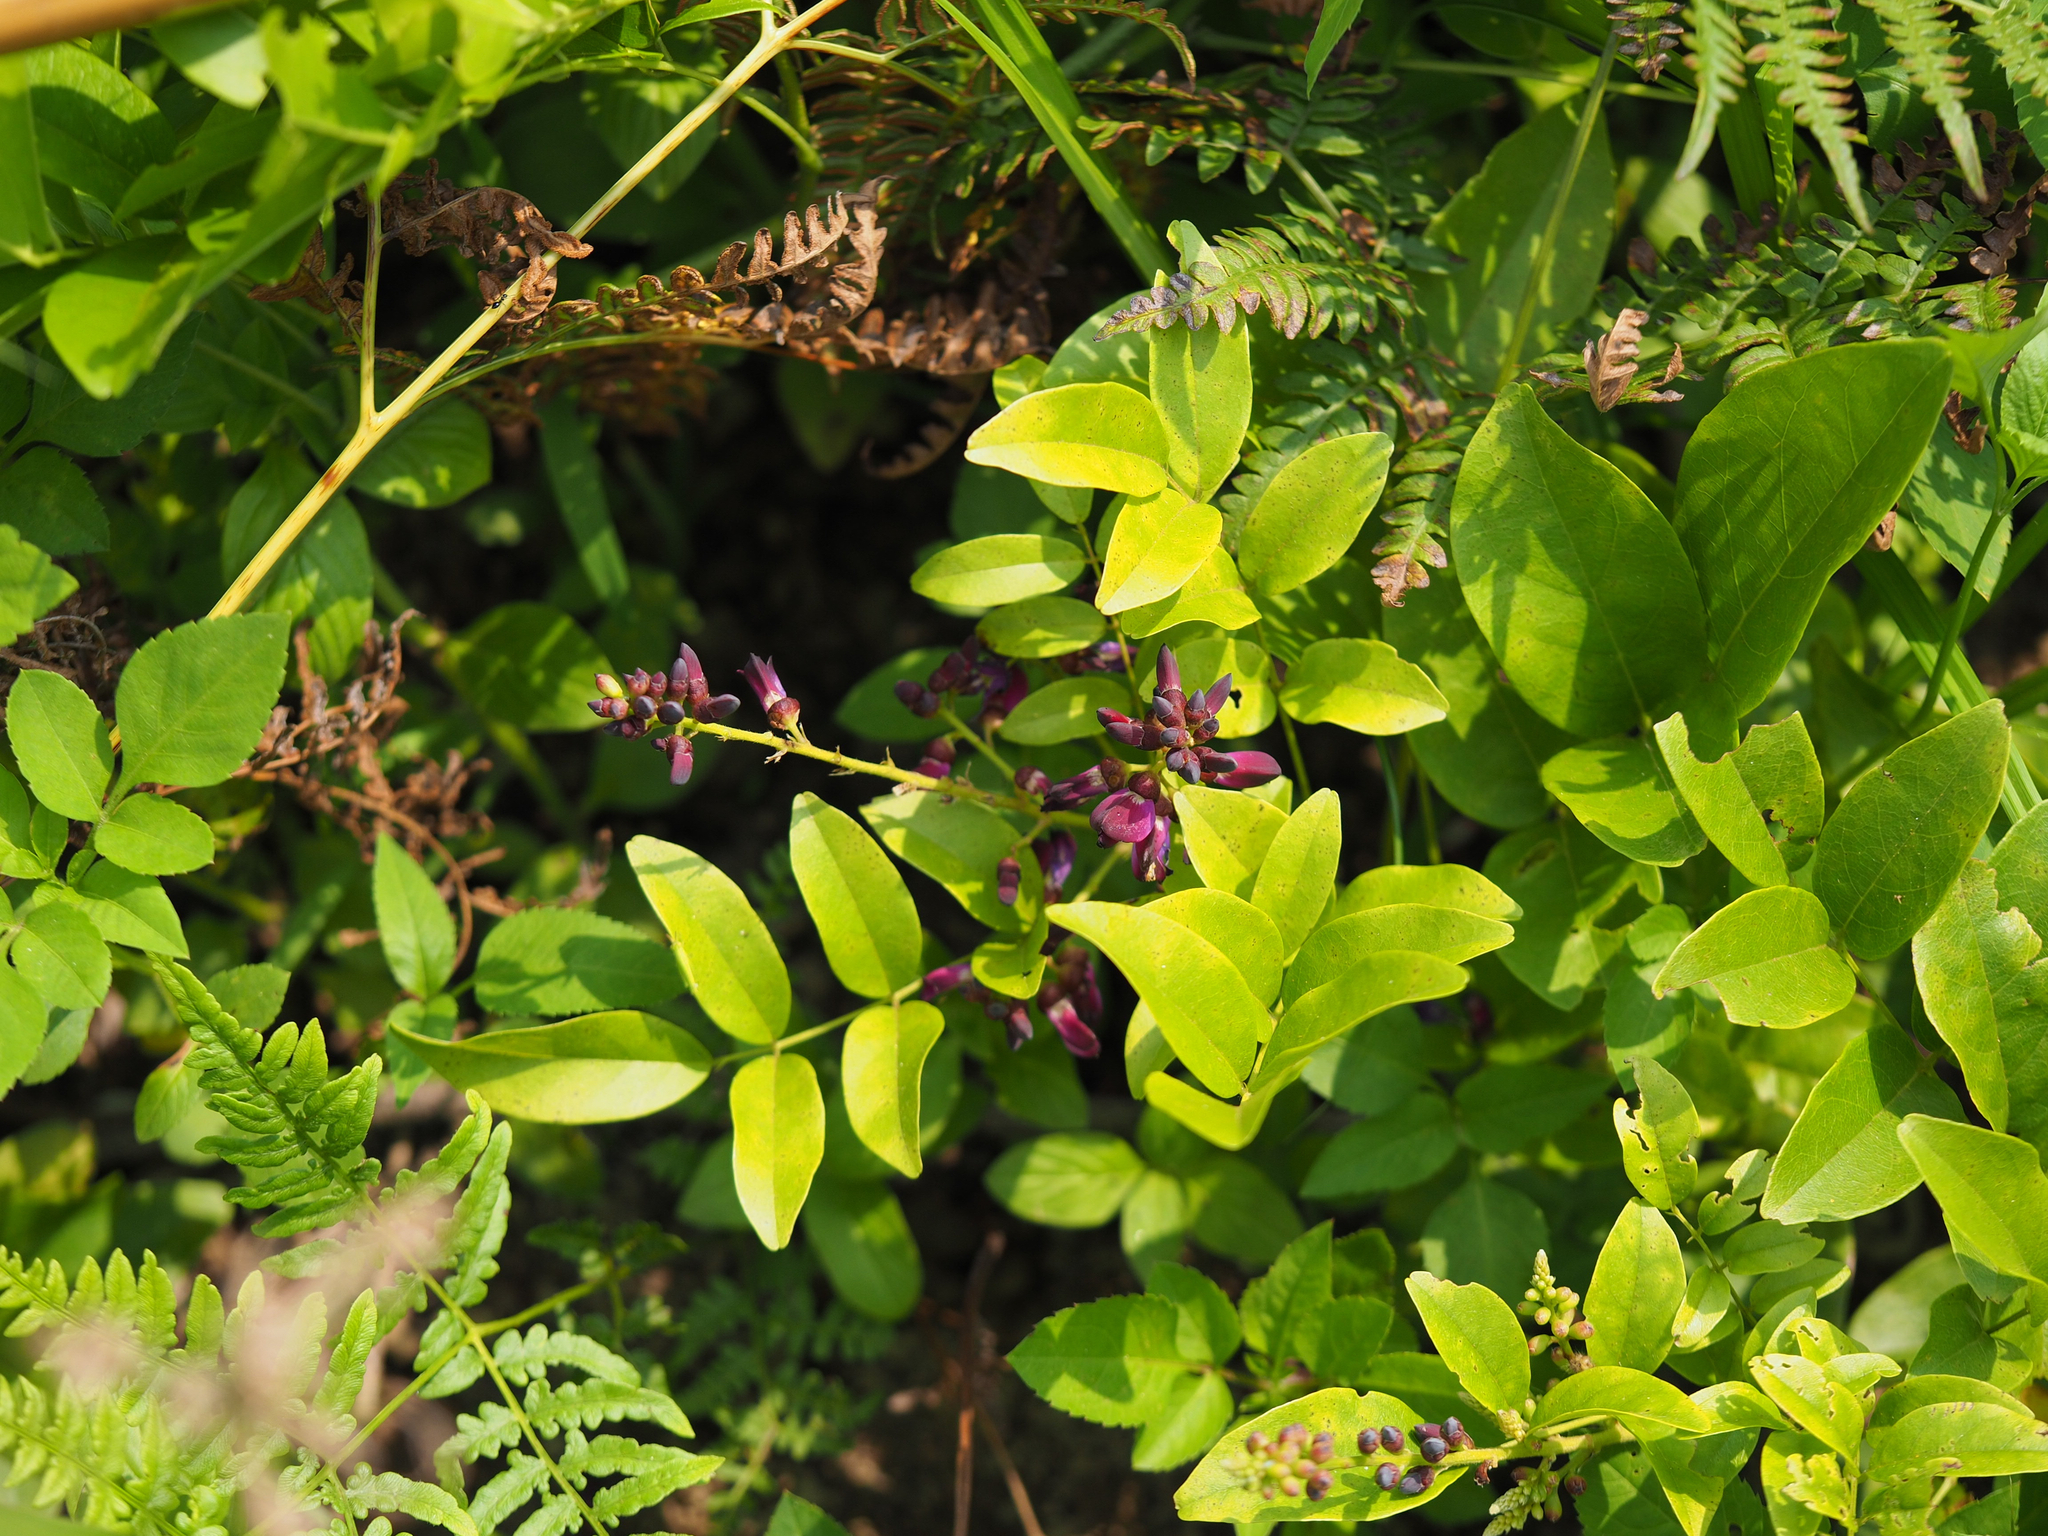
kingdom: Plantae
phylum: Tracheophyta
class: Magnoliopsida
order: Fabales
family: Fabaceae
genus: Wisteriopsis
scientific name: Wisteriopsis reticulata
